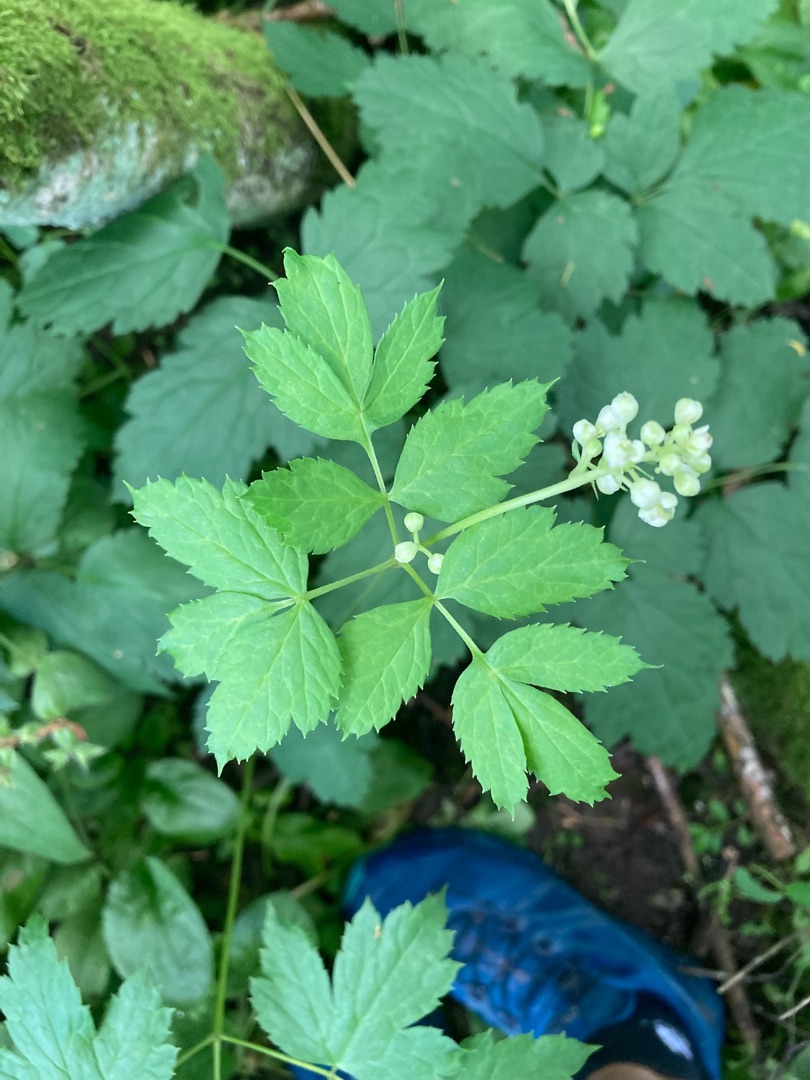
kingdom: Plantae
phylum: Tracheophyta
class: Magnoliopsida
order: Ranunculales
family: Ranunculaceae
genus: Actaea
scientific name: Actaea spicata
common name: Druemunke
